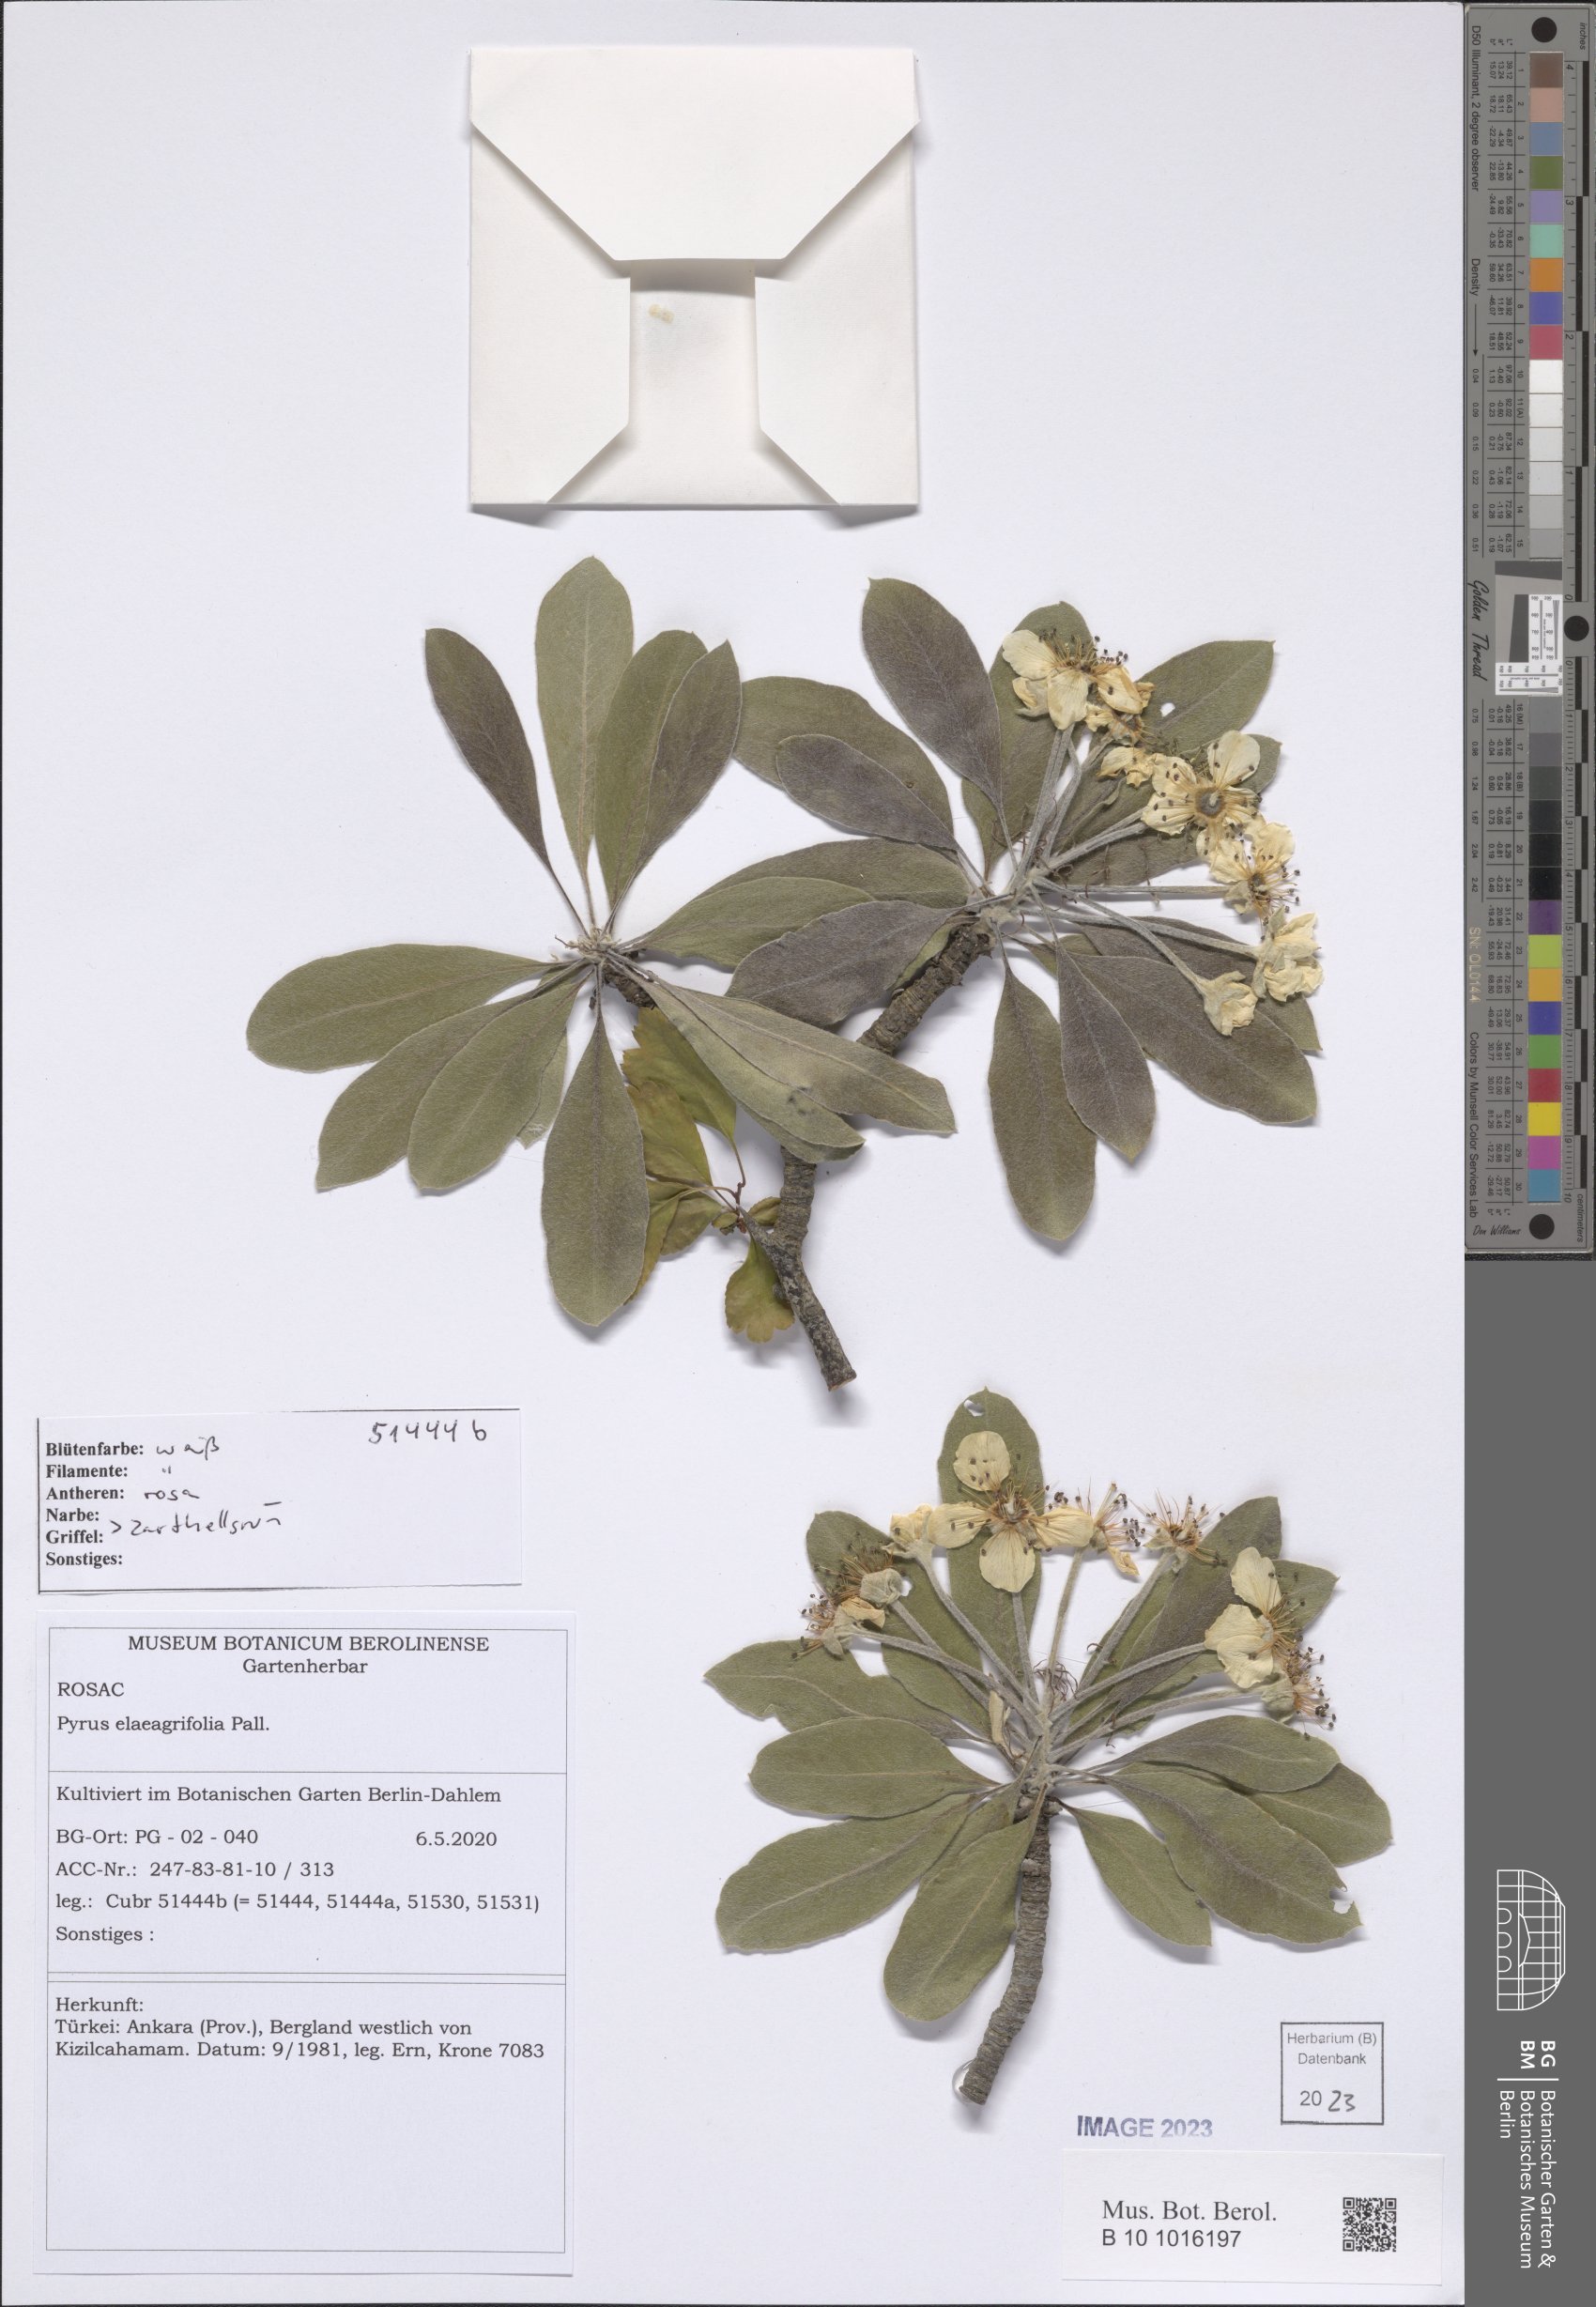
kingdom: Plantae
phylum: Tracheophyta
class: Magnoliopsida
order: Rosales
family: Rosaceae
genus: Pyrus
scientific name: Pyrus elaeagnifolia
